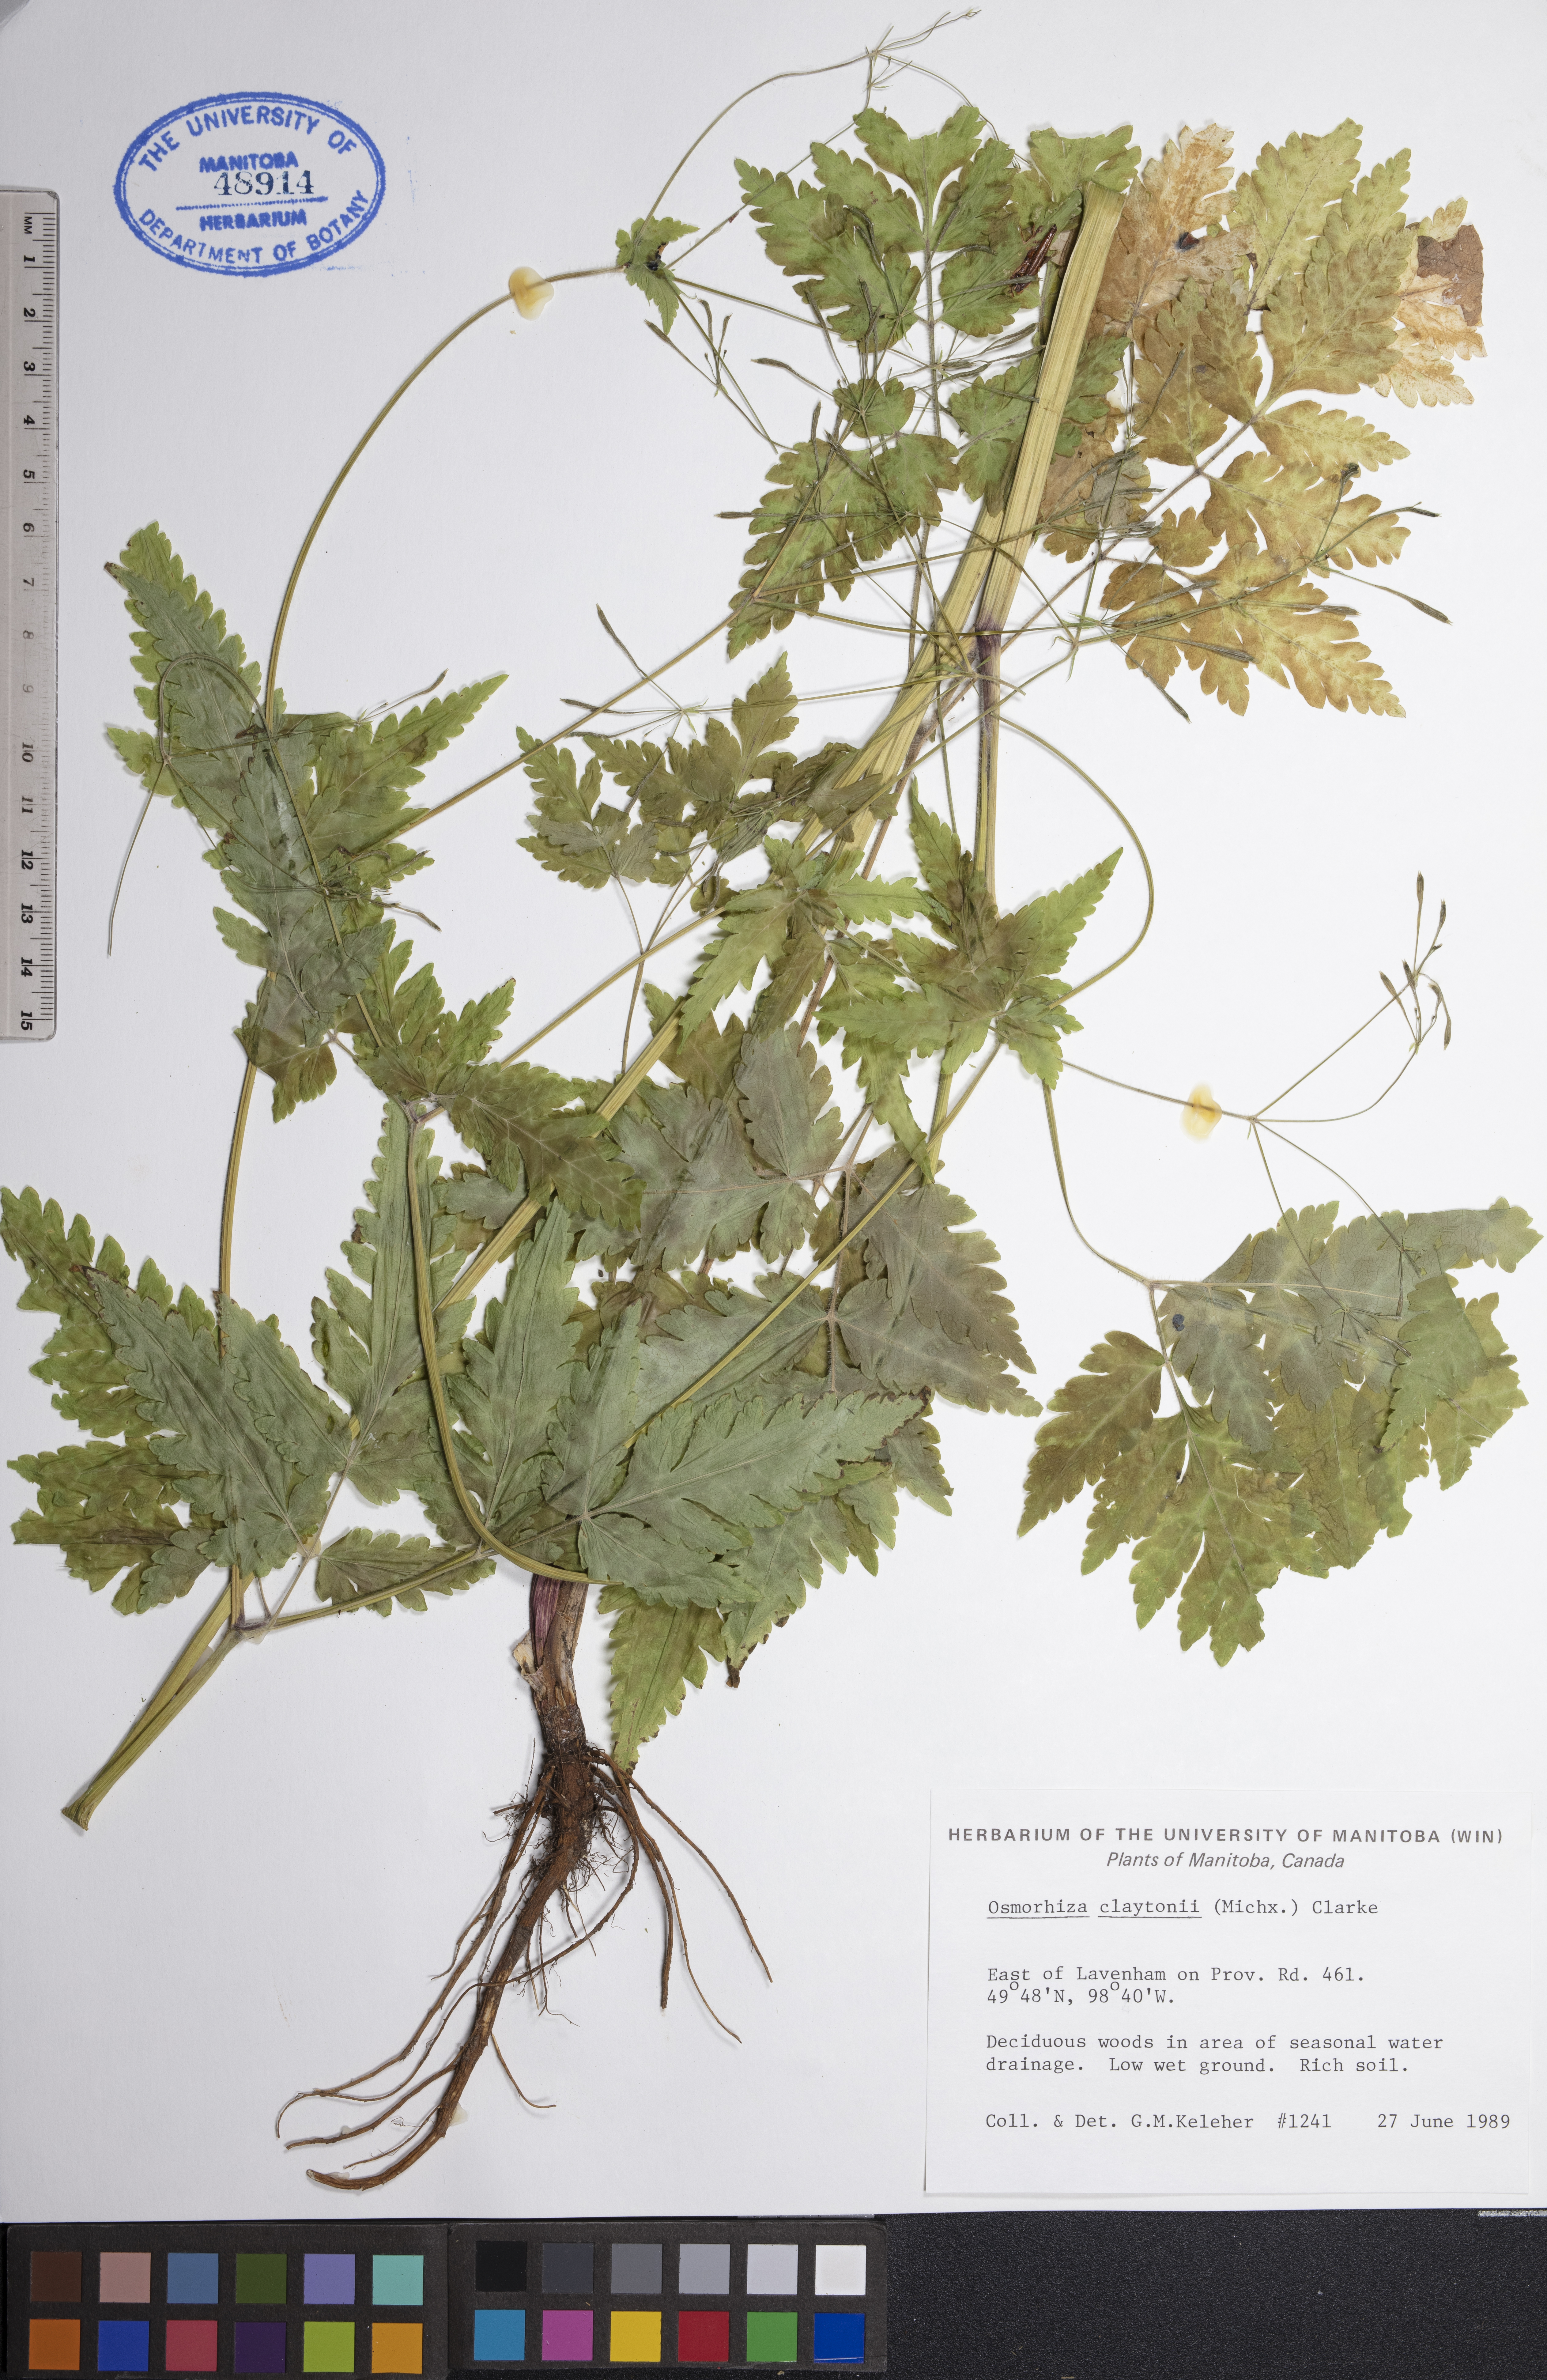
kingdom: Plantae
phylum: Tracheophyta
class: Magnoliopsida
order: Apiales
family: Apiaceae
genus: Osmorhiza
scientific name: Osmorhiza claytonii
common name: Hairy sweet cicely
